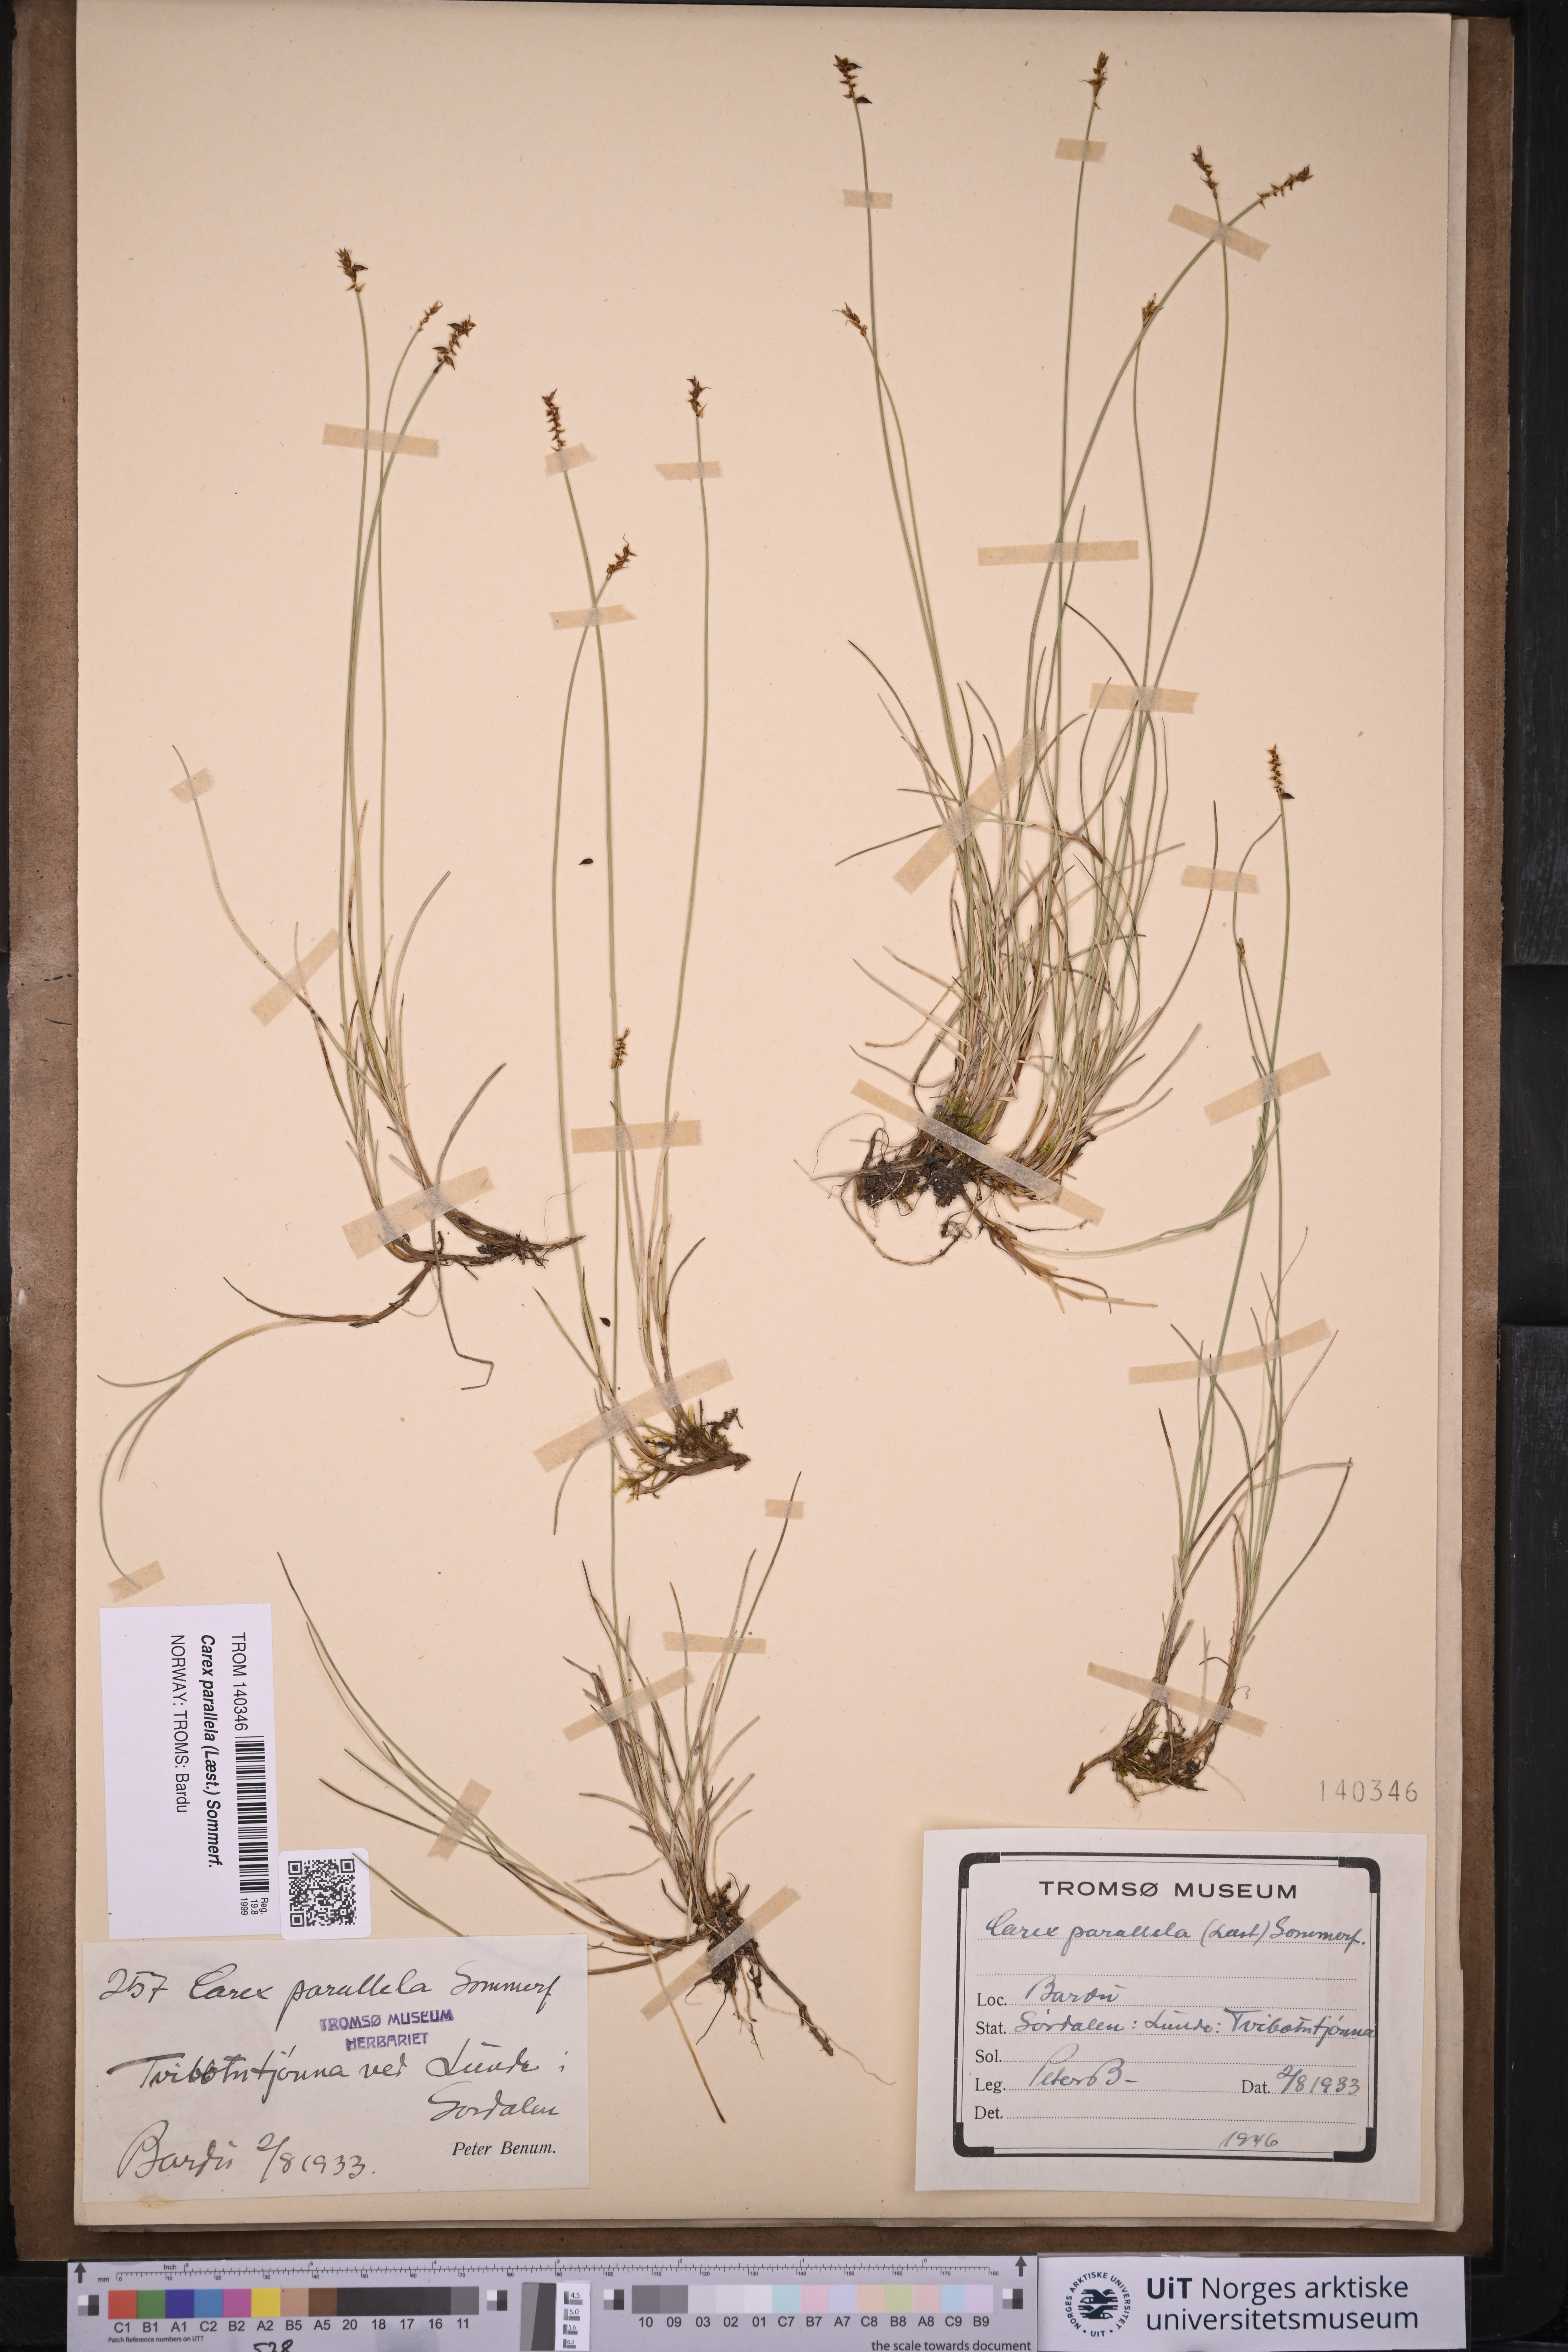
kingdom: Plantae
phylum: Tracheophyta
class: Liliopsida
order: Poales
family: Cyperaceae
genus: Carex
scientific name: Carex parallela
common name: Parallel sedge
